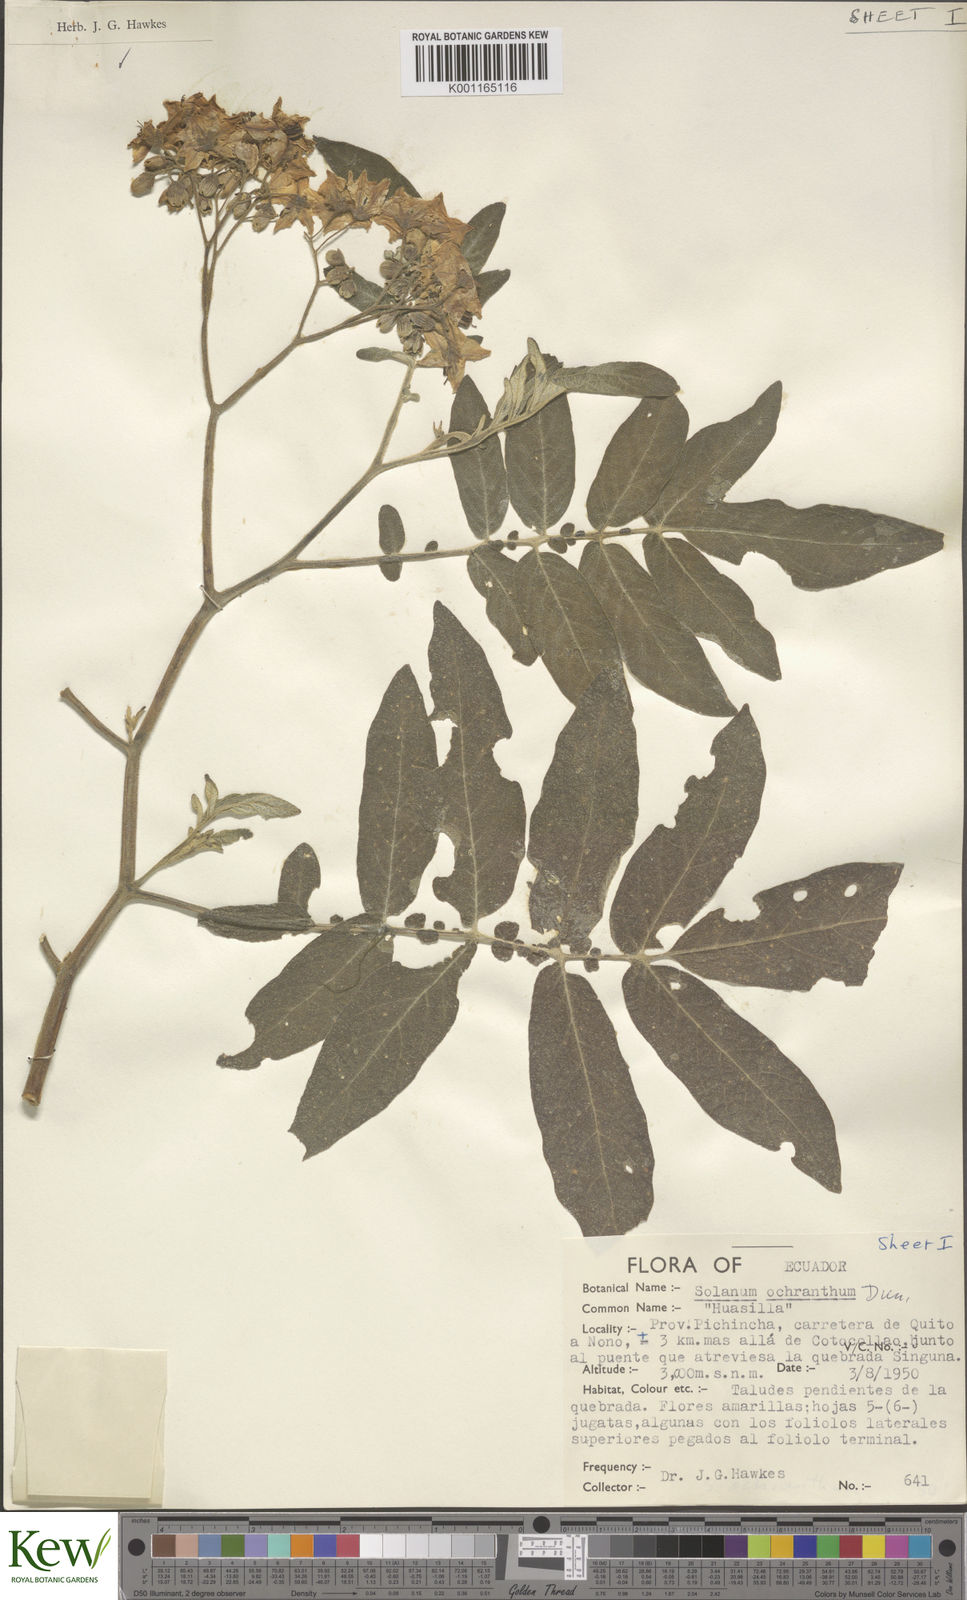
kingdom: Plantae
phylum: Tracheophyta
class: Magnoliopsida
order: Solanales
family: Solanaceae
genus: Solanum
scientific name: Solanum ochranthum
